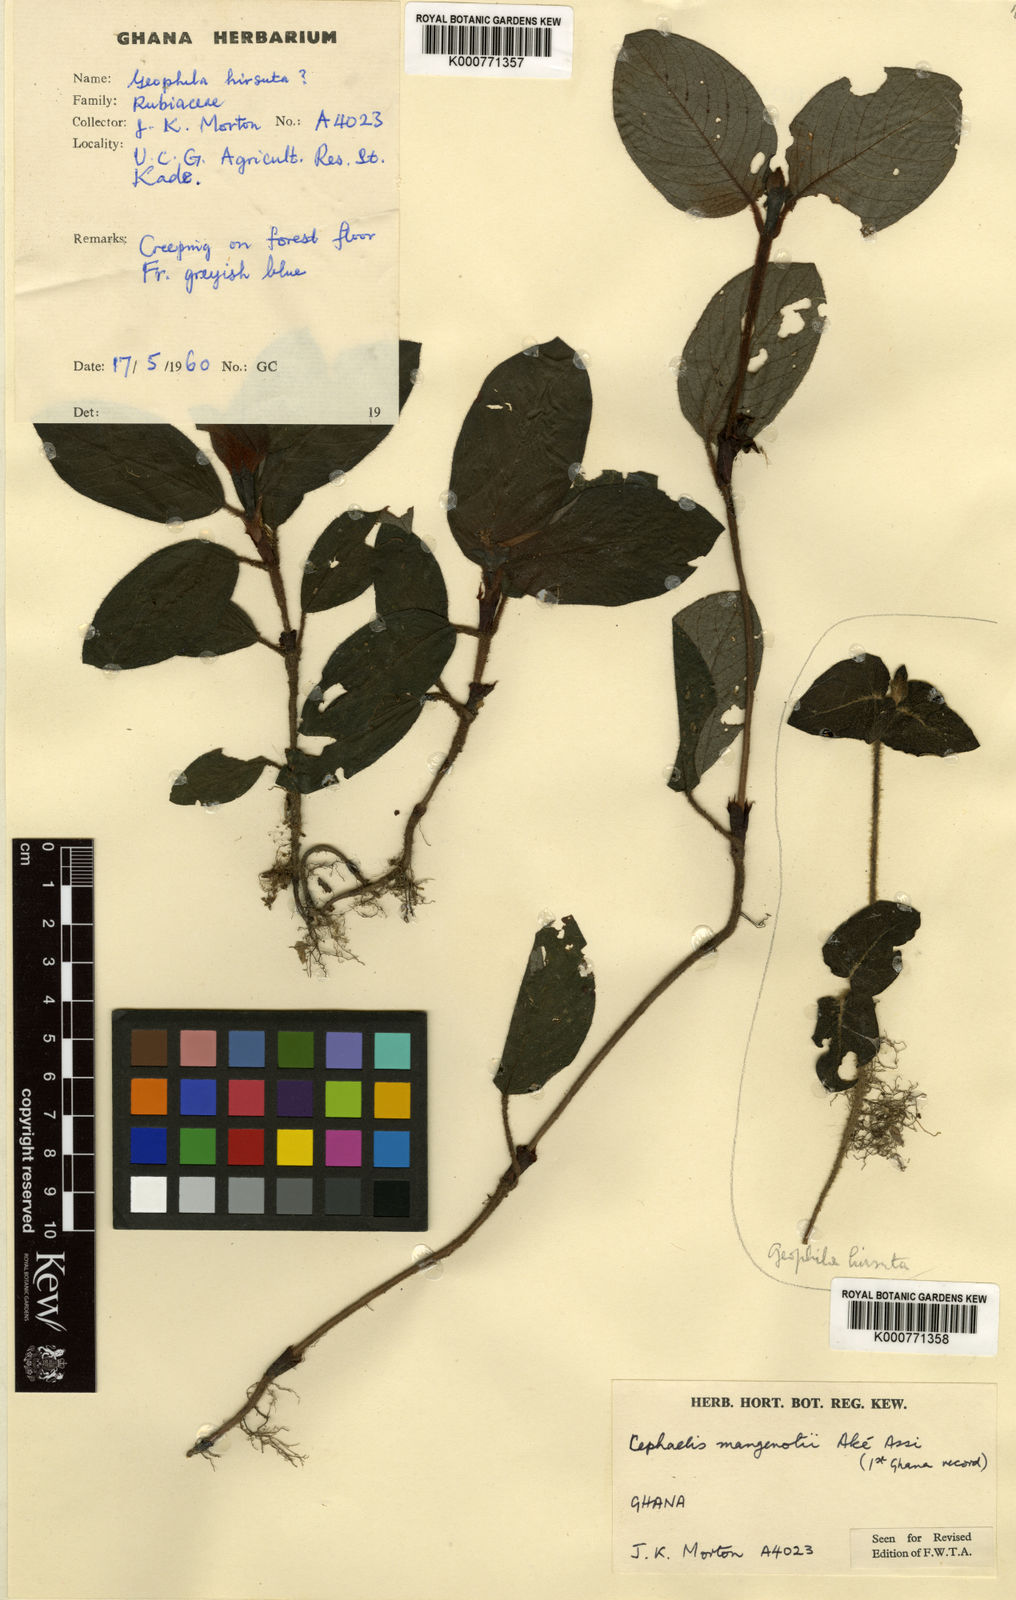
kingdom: Plantae
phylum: Tracheophyta
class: Magnoliopsida
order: Gentianales
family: Rubiaceae
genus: Hymenocoleus
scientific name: Hymenocoleus hirsutus
